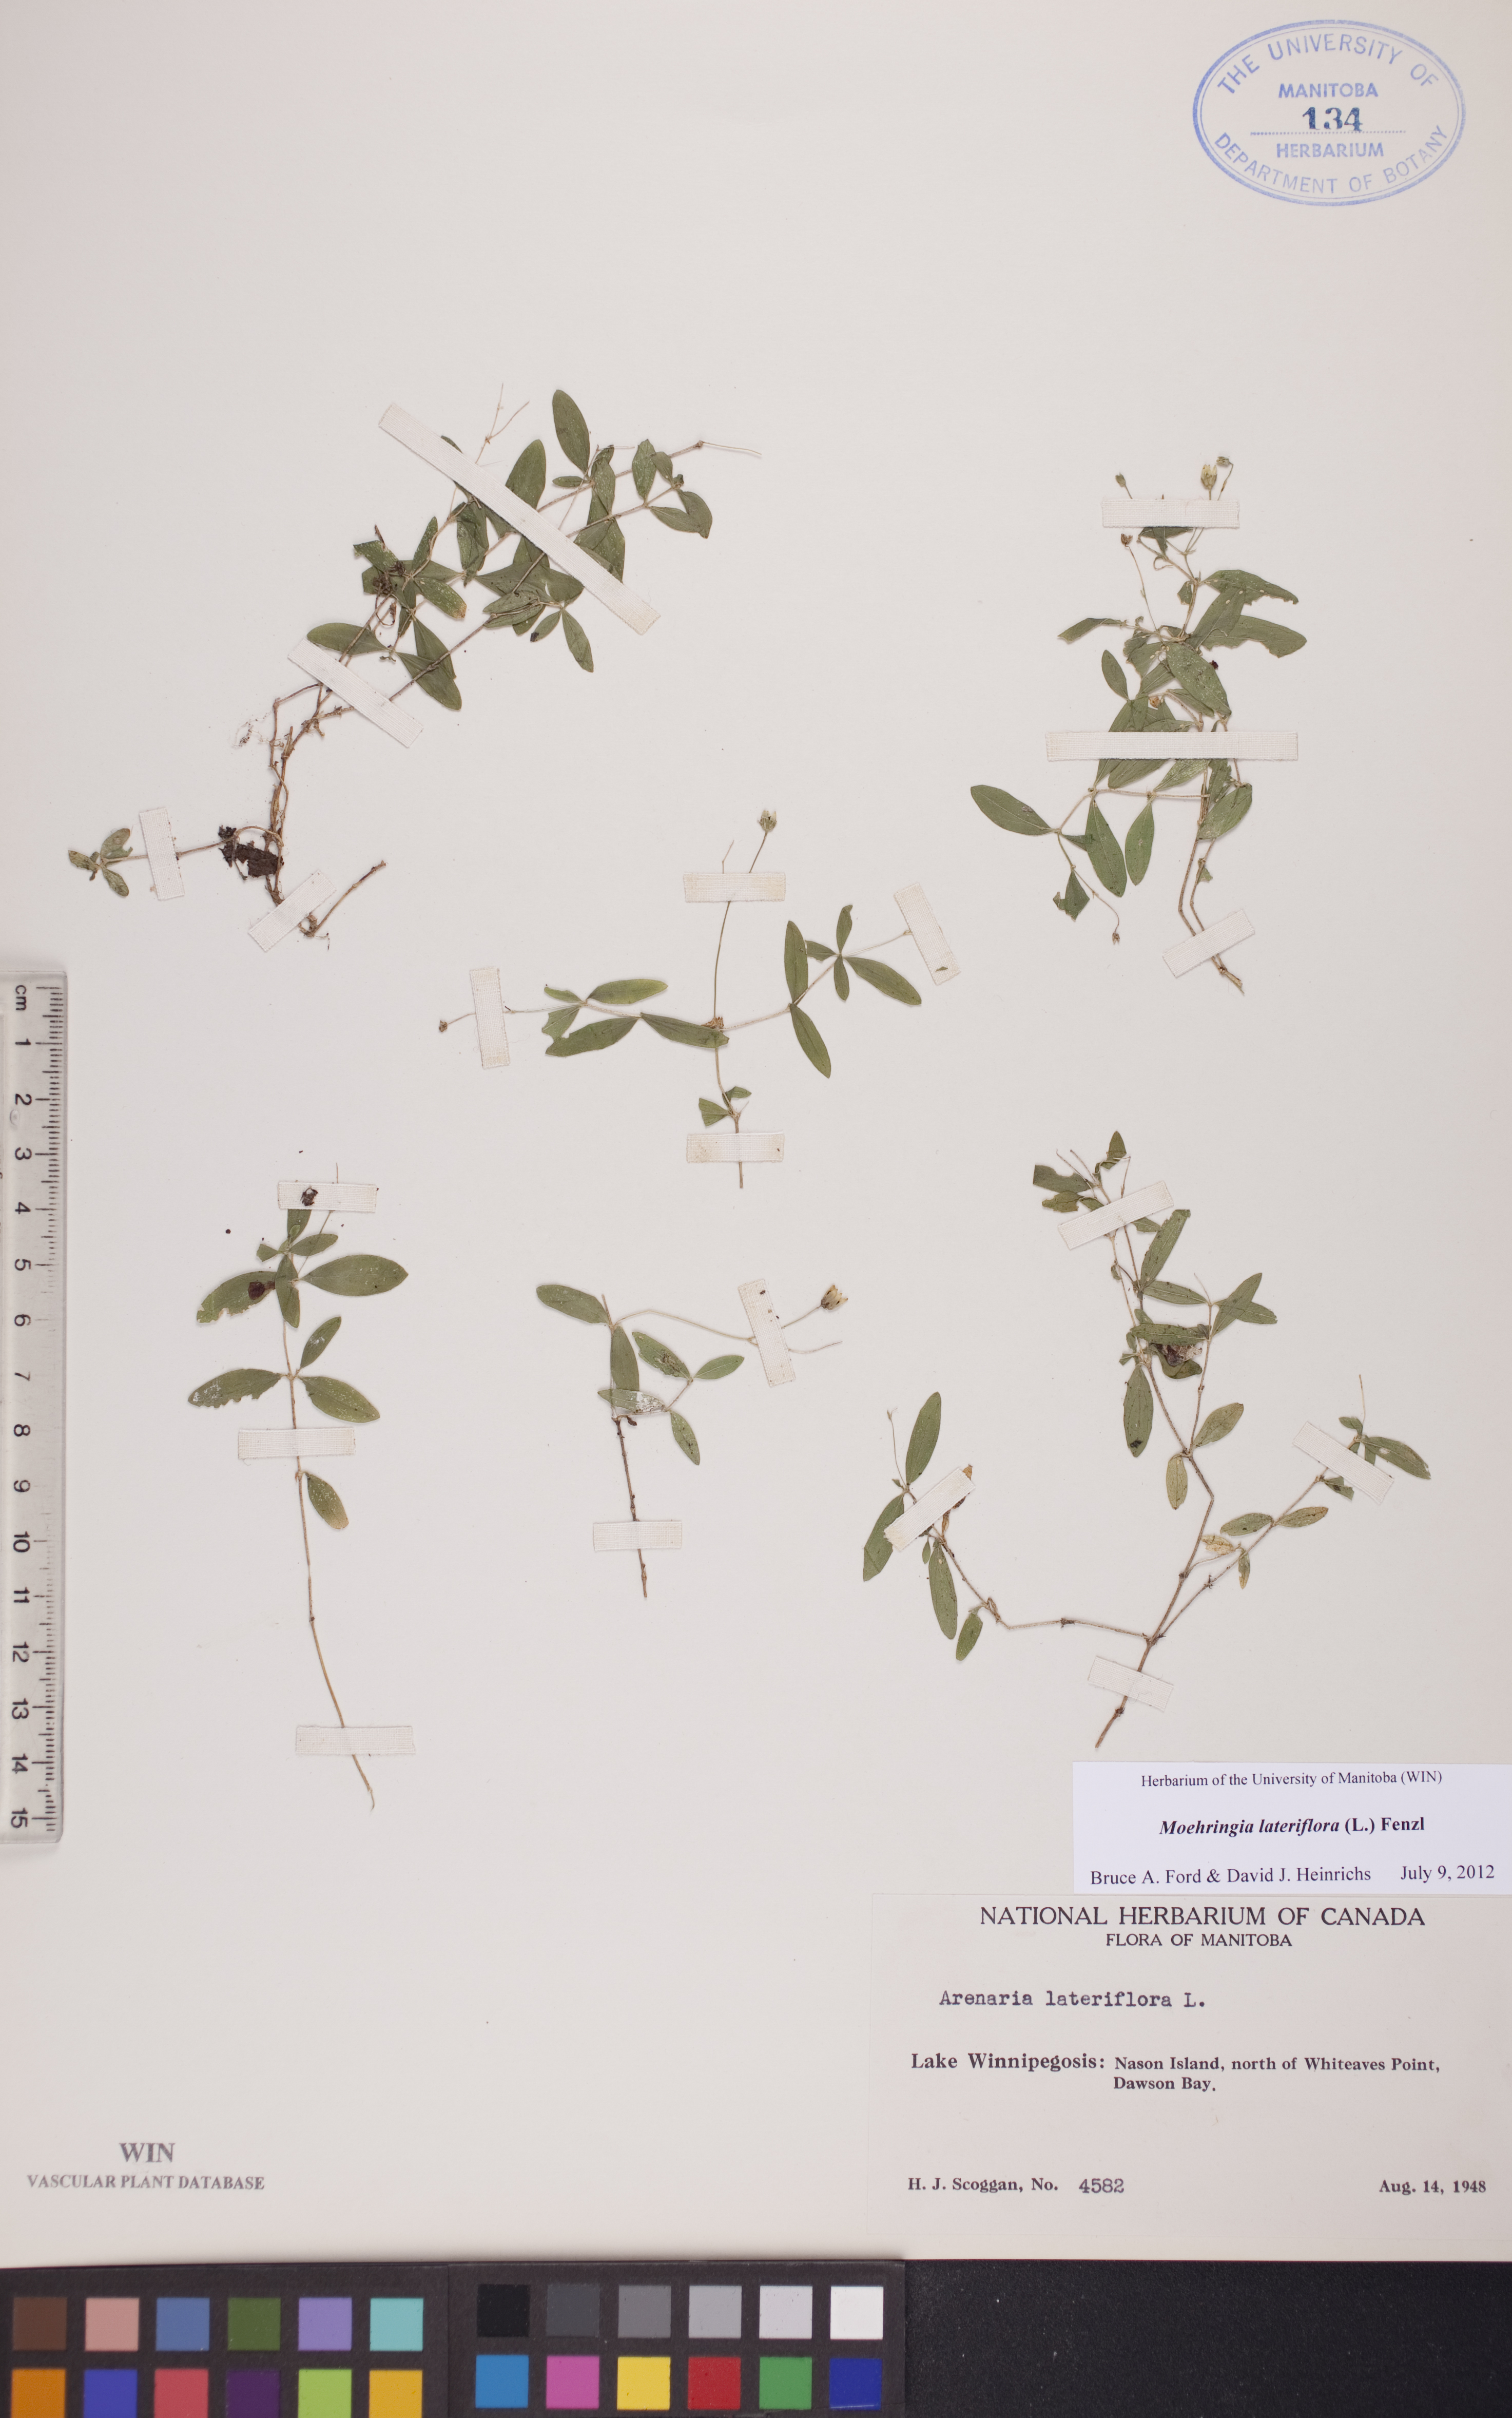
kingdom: Plantae
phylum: Tracheophyta
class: Magnoliopsida
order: Caryophyllales
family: Caryophyllaceae
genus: Moehringia
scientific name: Moehringia lateriflora
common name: Blunt-leaved sandwort
